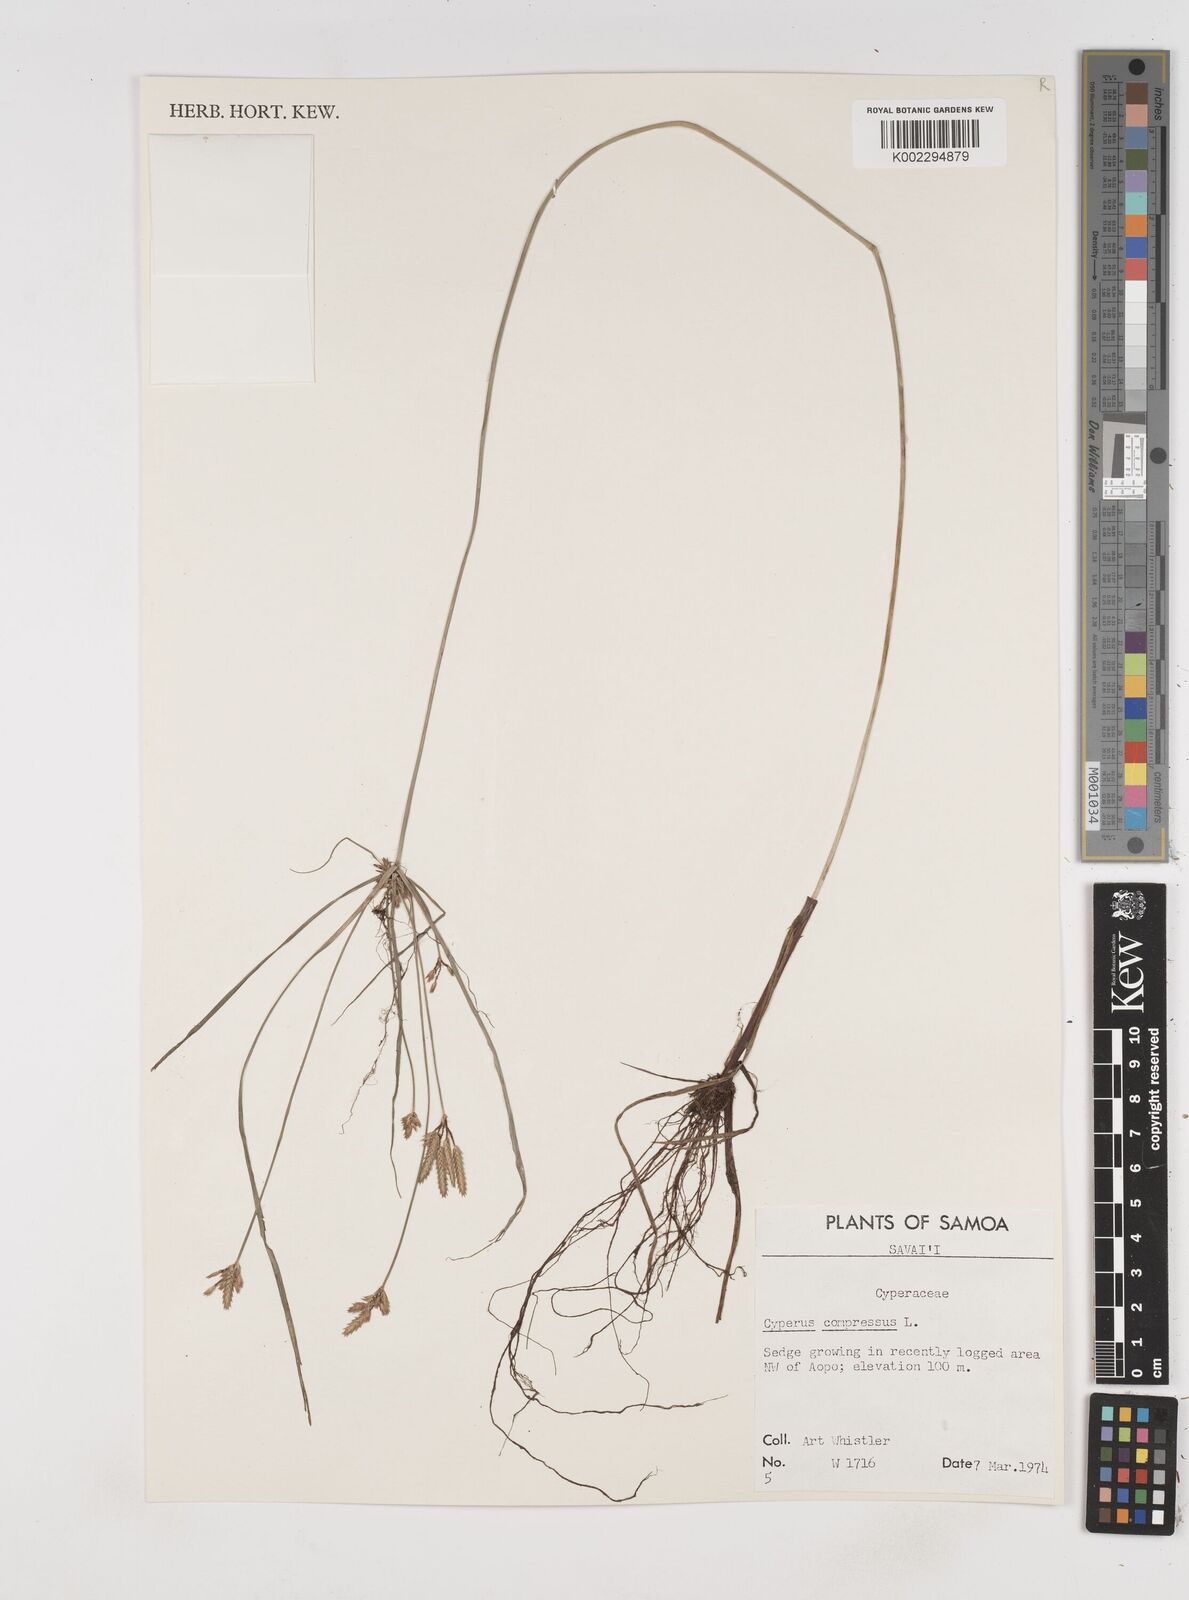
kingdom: Plantae
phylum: Tracheophyta
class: Liliopsida
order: Poales
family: Cyperaceae
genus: Cyperus
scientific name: Cyperus compressus
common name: Poorland flatsedge
